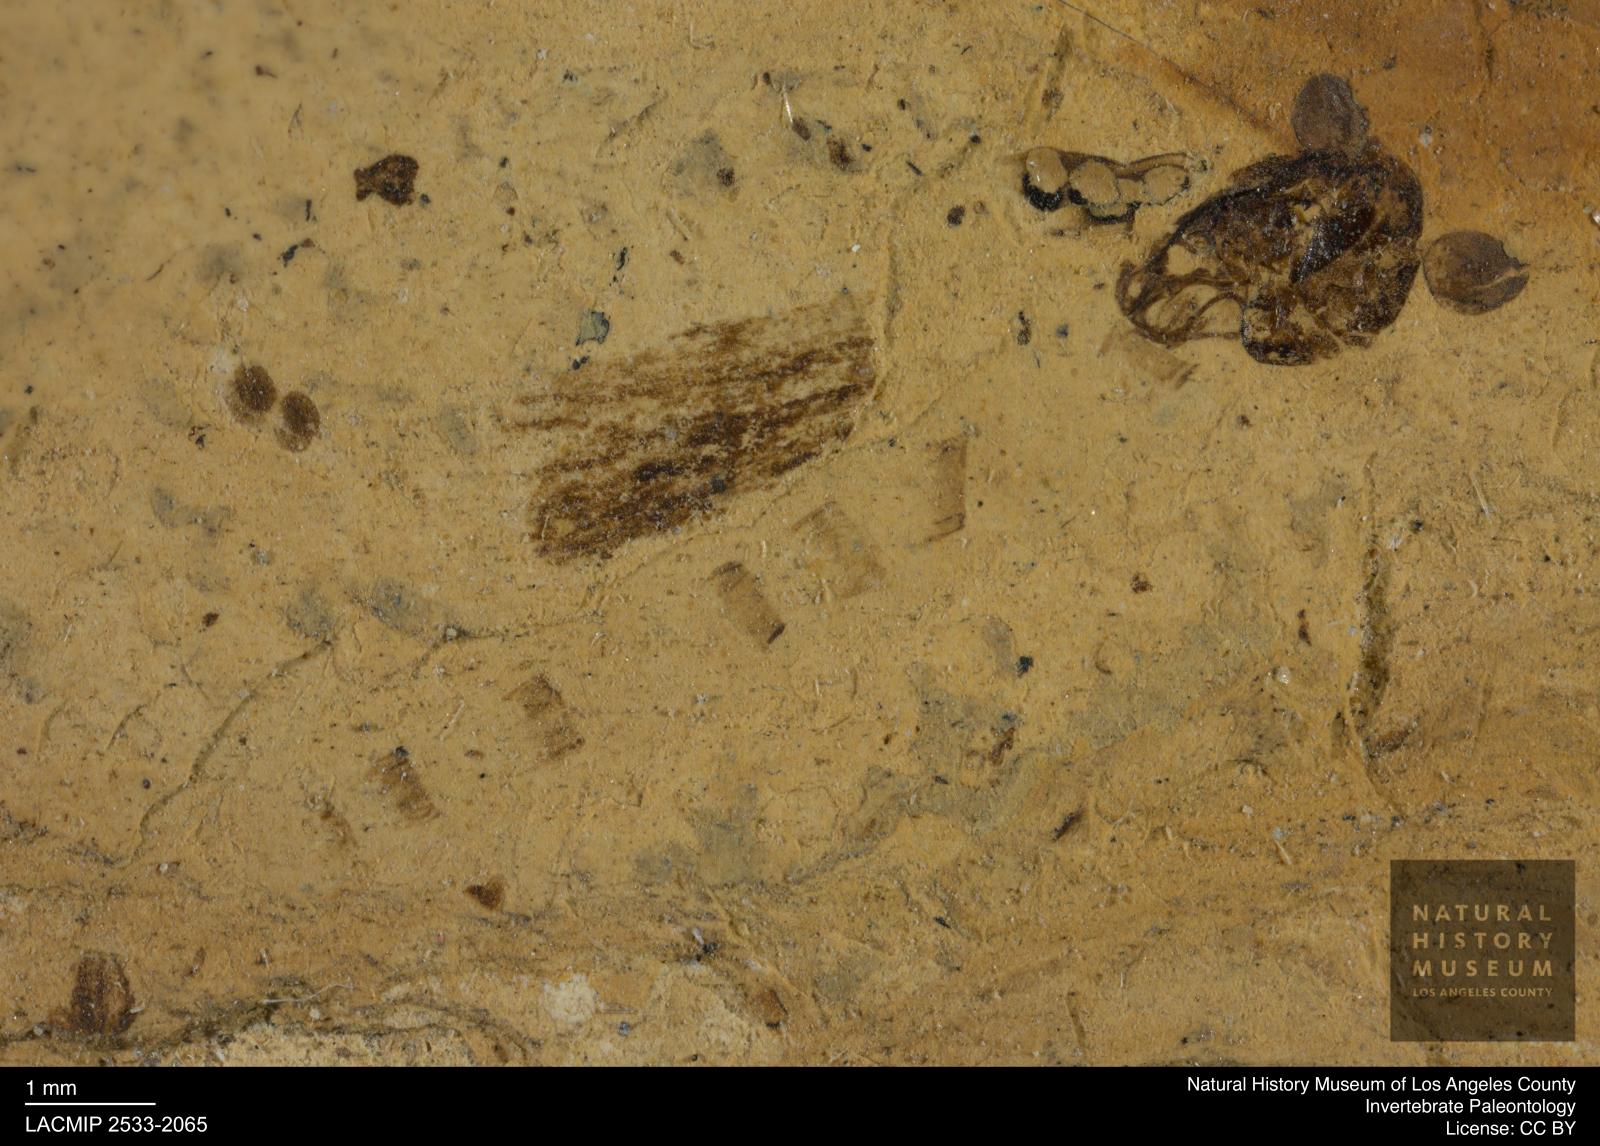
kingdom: Animalia
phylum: Arthropoda
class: Insecta
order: Diptera
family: Chironomidae
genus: Pelopiina
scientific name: Pelopiina
